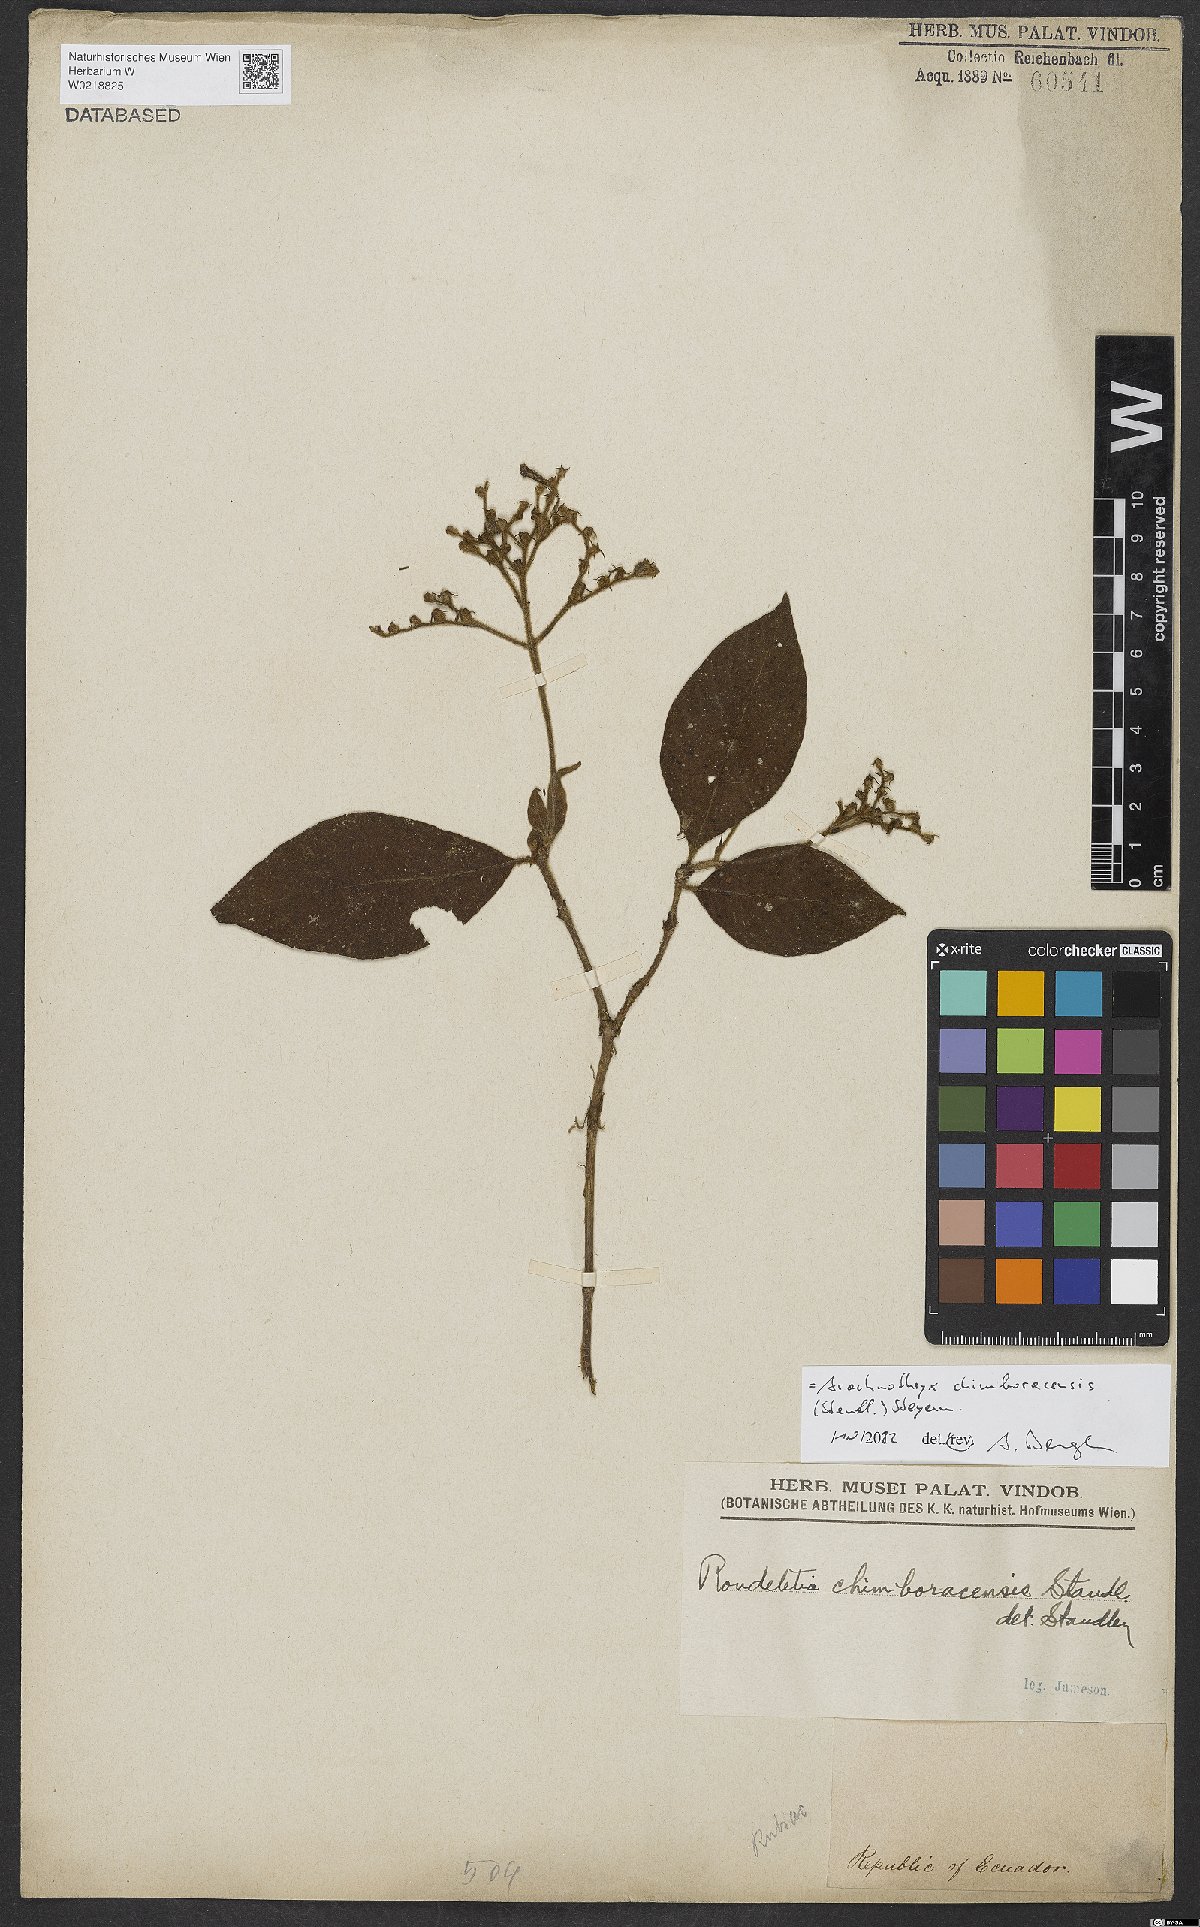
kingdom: Plantae
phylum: Tracheophyta
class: Magnoliopsida
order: Gentianales
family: Rubiaceae
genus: Arachnothryx
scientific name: Arachnothryx chimboracensis
